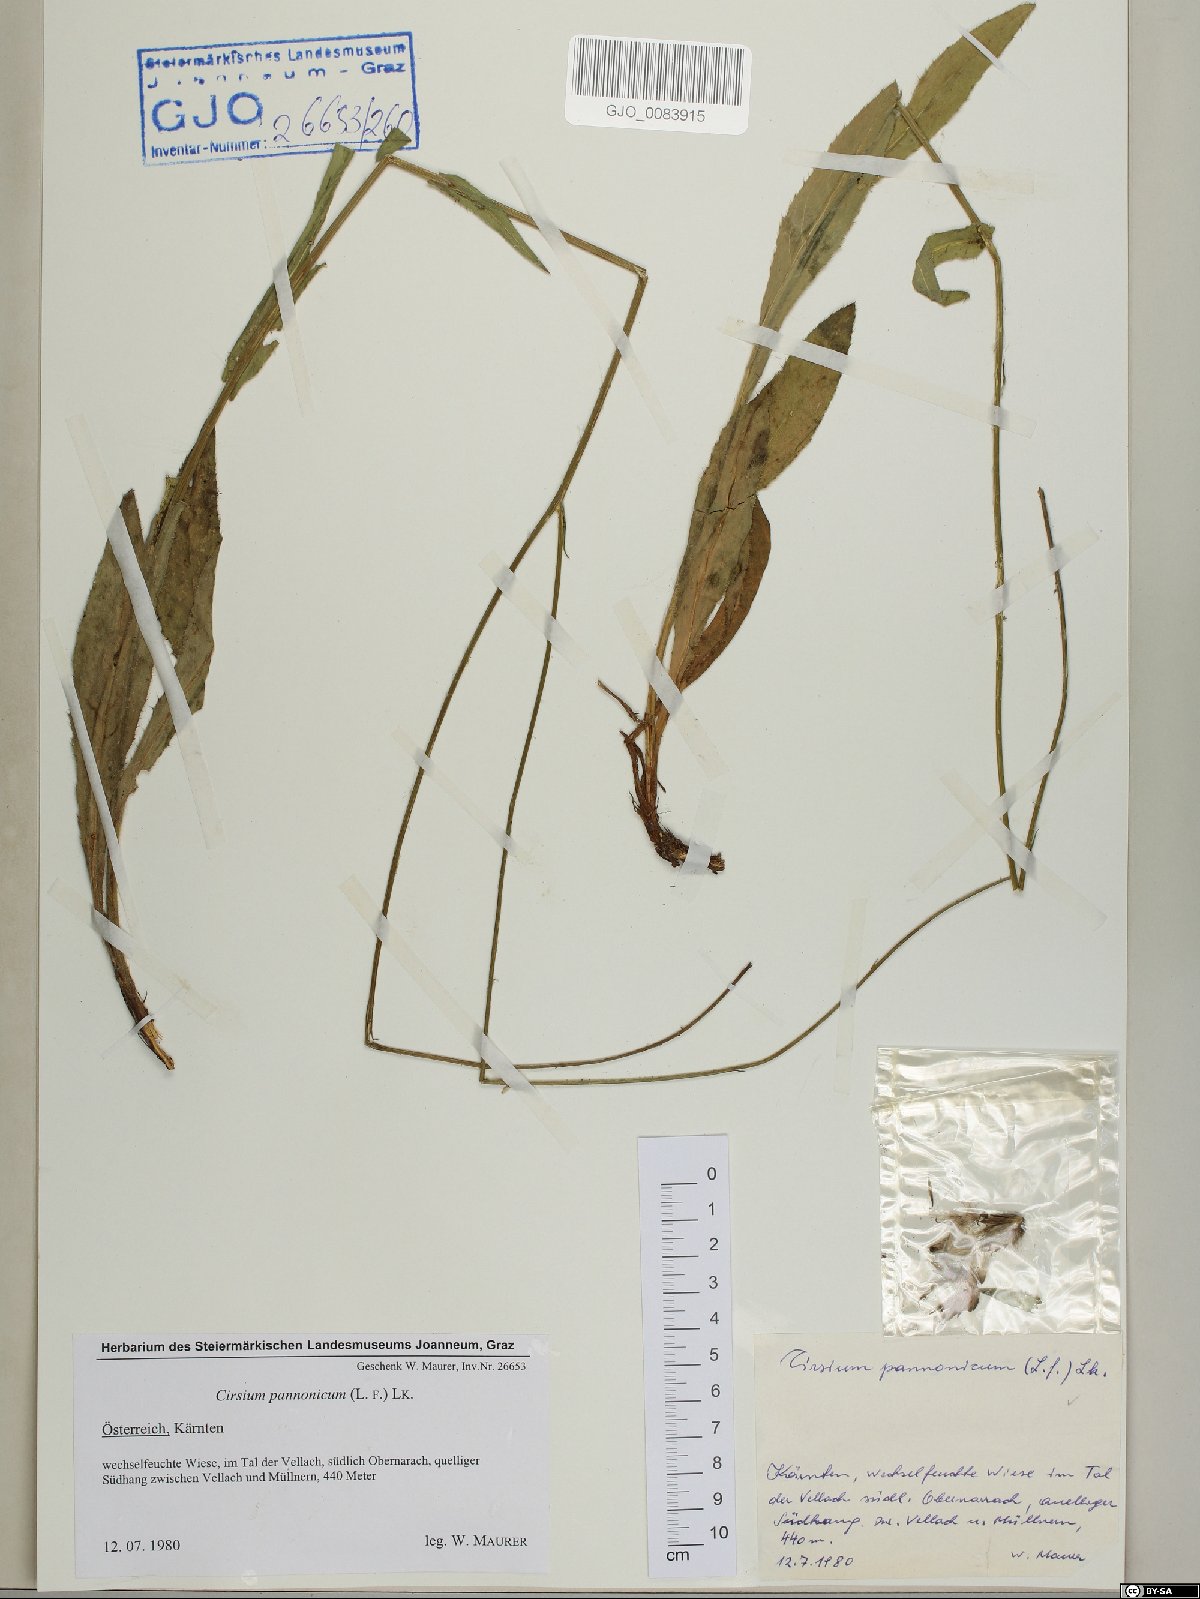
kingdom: Plantae
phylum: Tracheophyta
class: Magnoliopsida
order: Asterales
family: Asteraceae
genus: Cirsium
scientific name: Cirsium pannonicum
